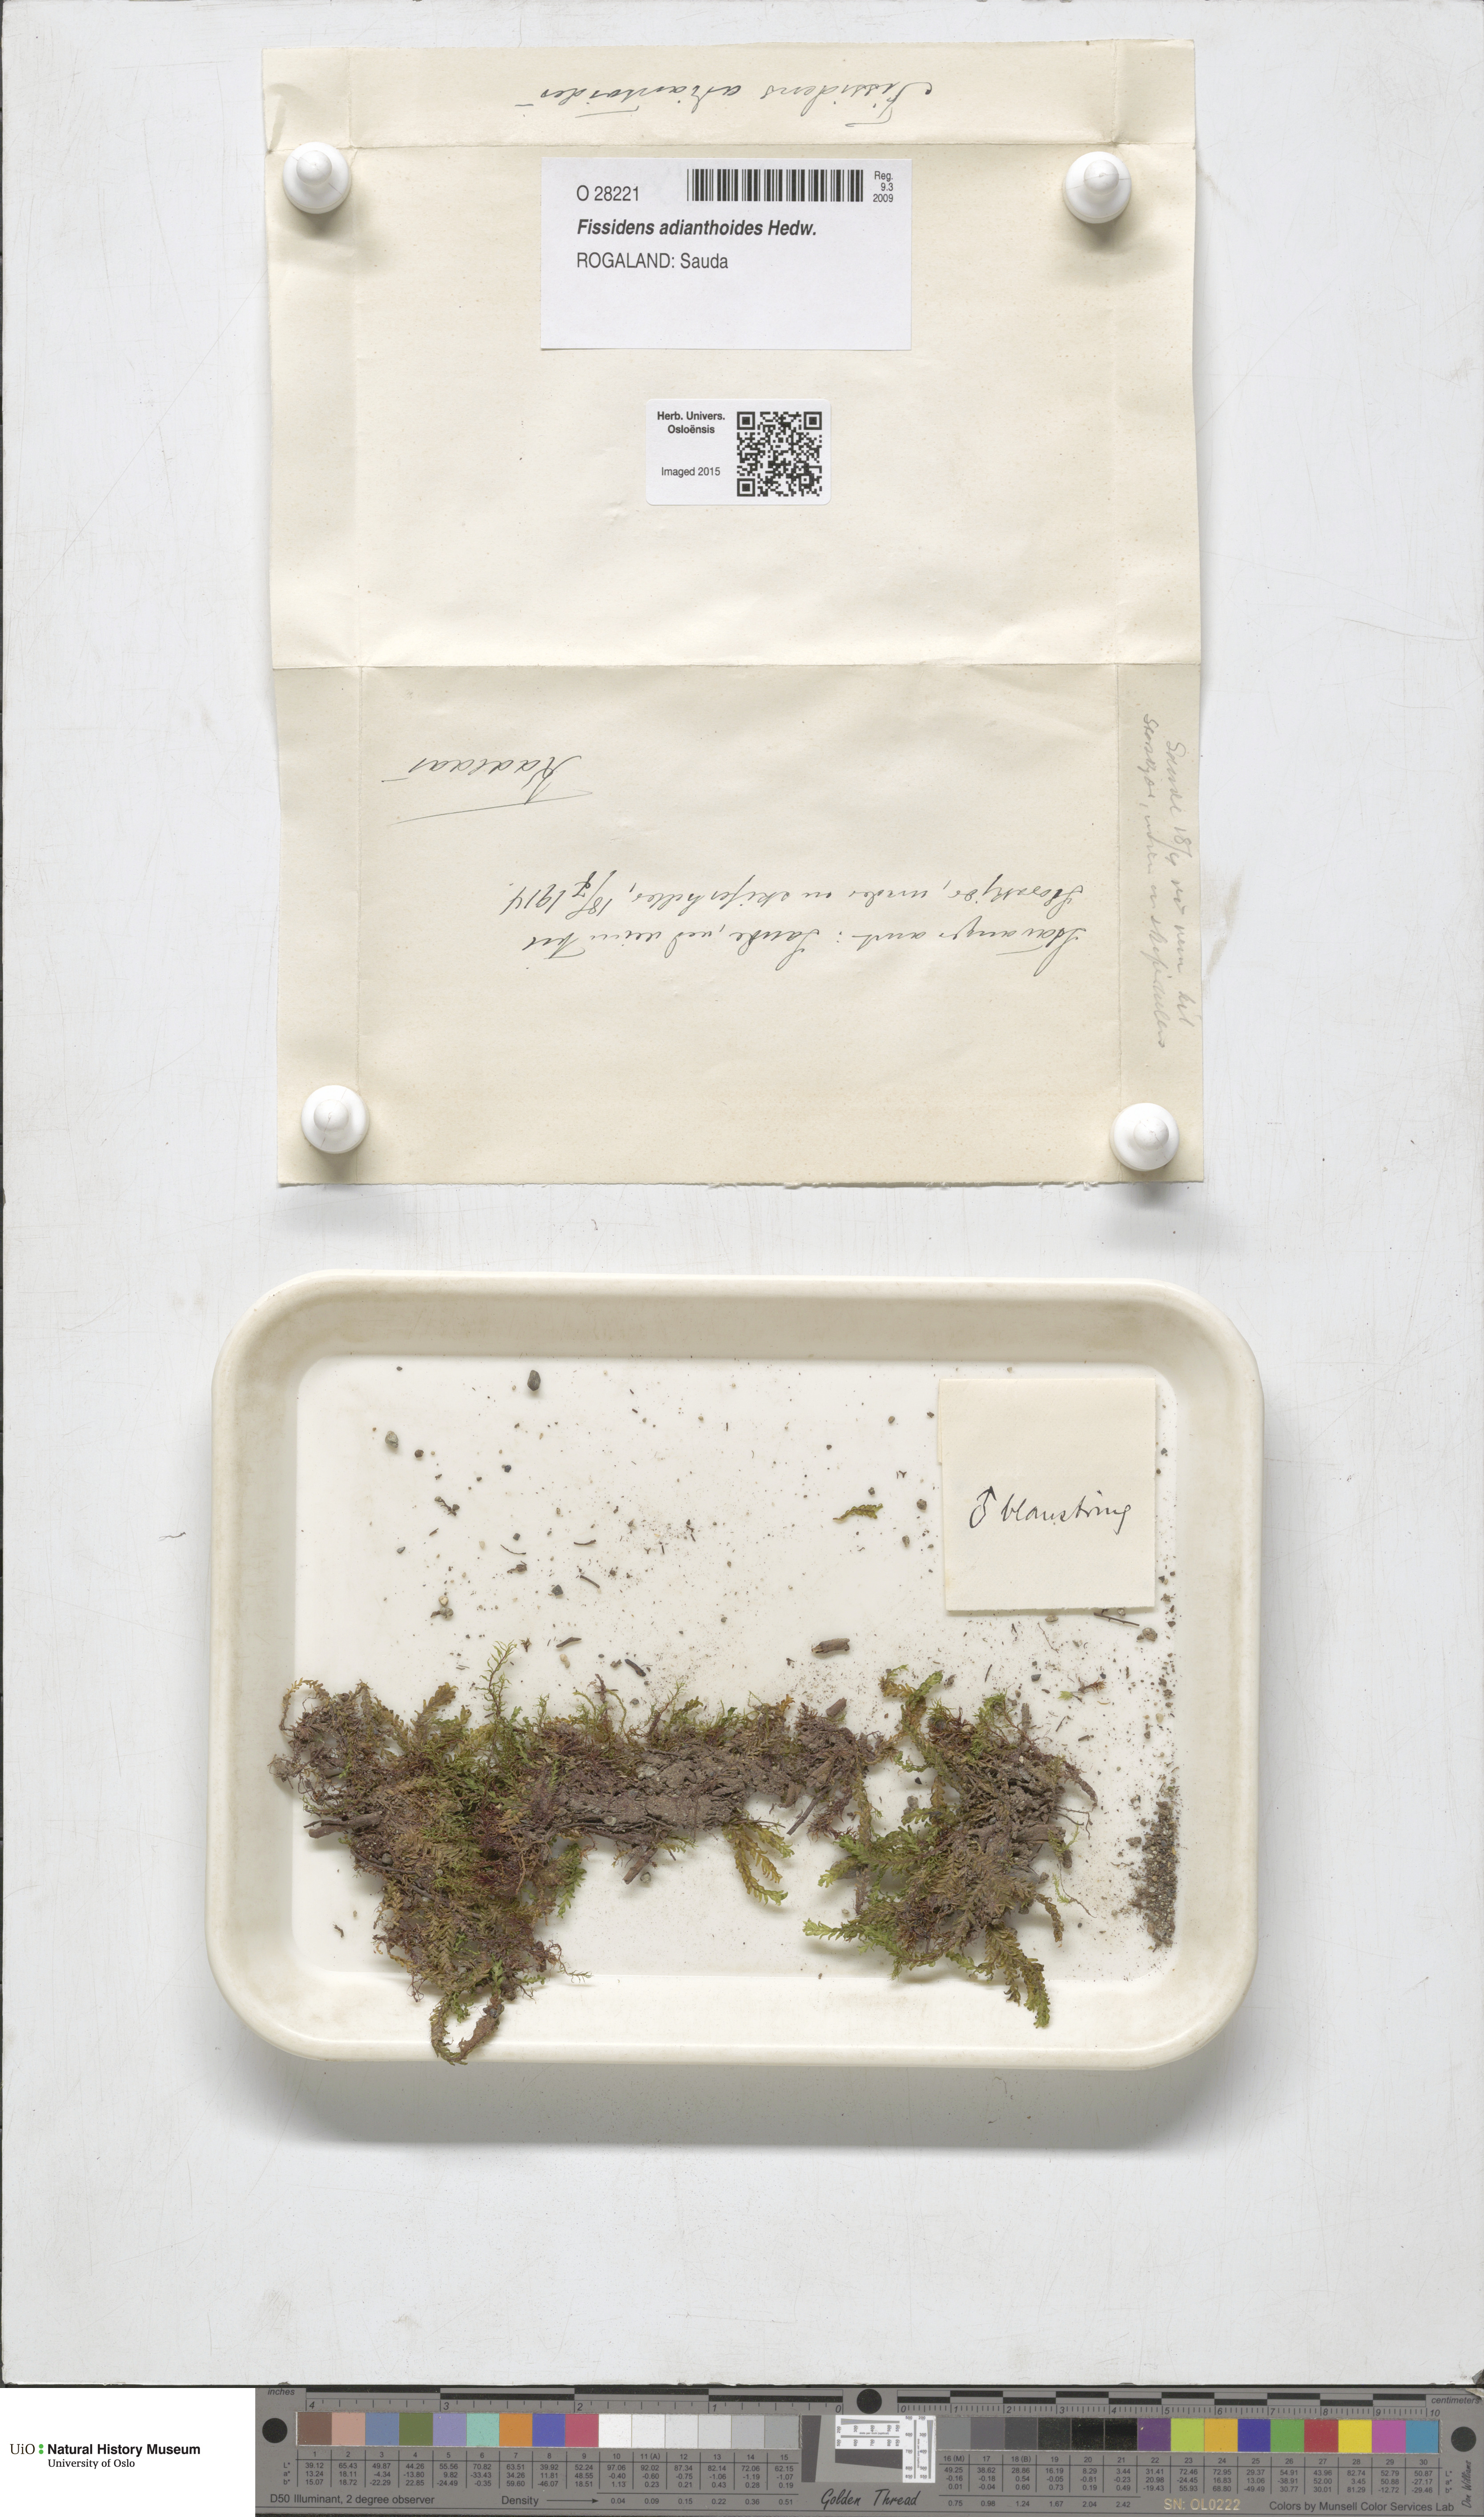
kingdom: Plantae
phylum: Bryophyta
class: Bryopsida
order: Dicranales
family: Fissidentaceae
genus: Fissidens
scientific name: Fissidens adianthoides
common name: Maidenhair pocket moss
